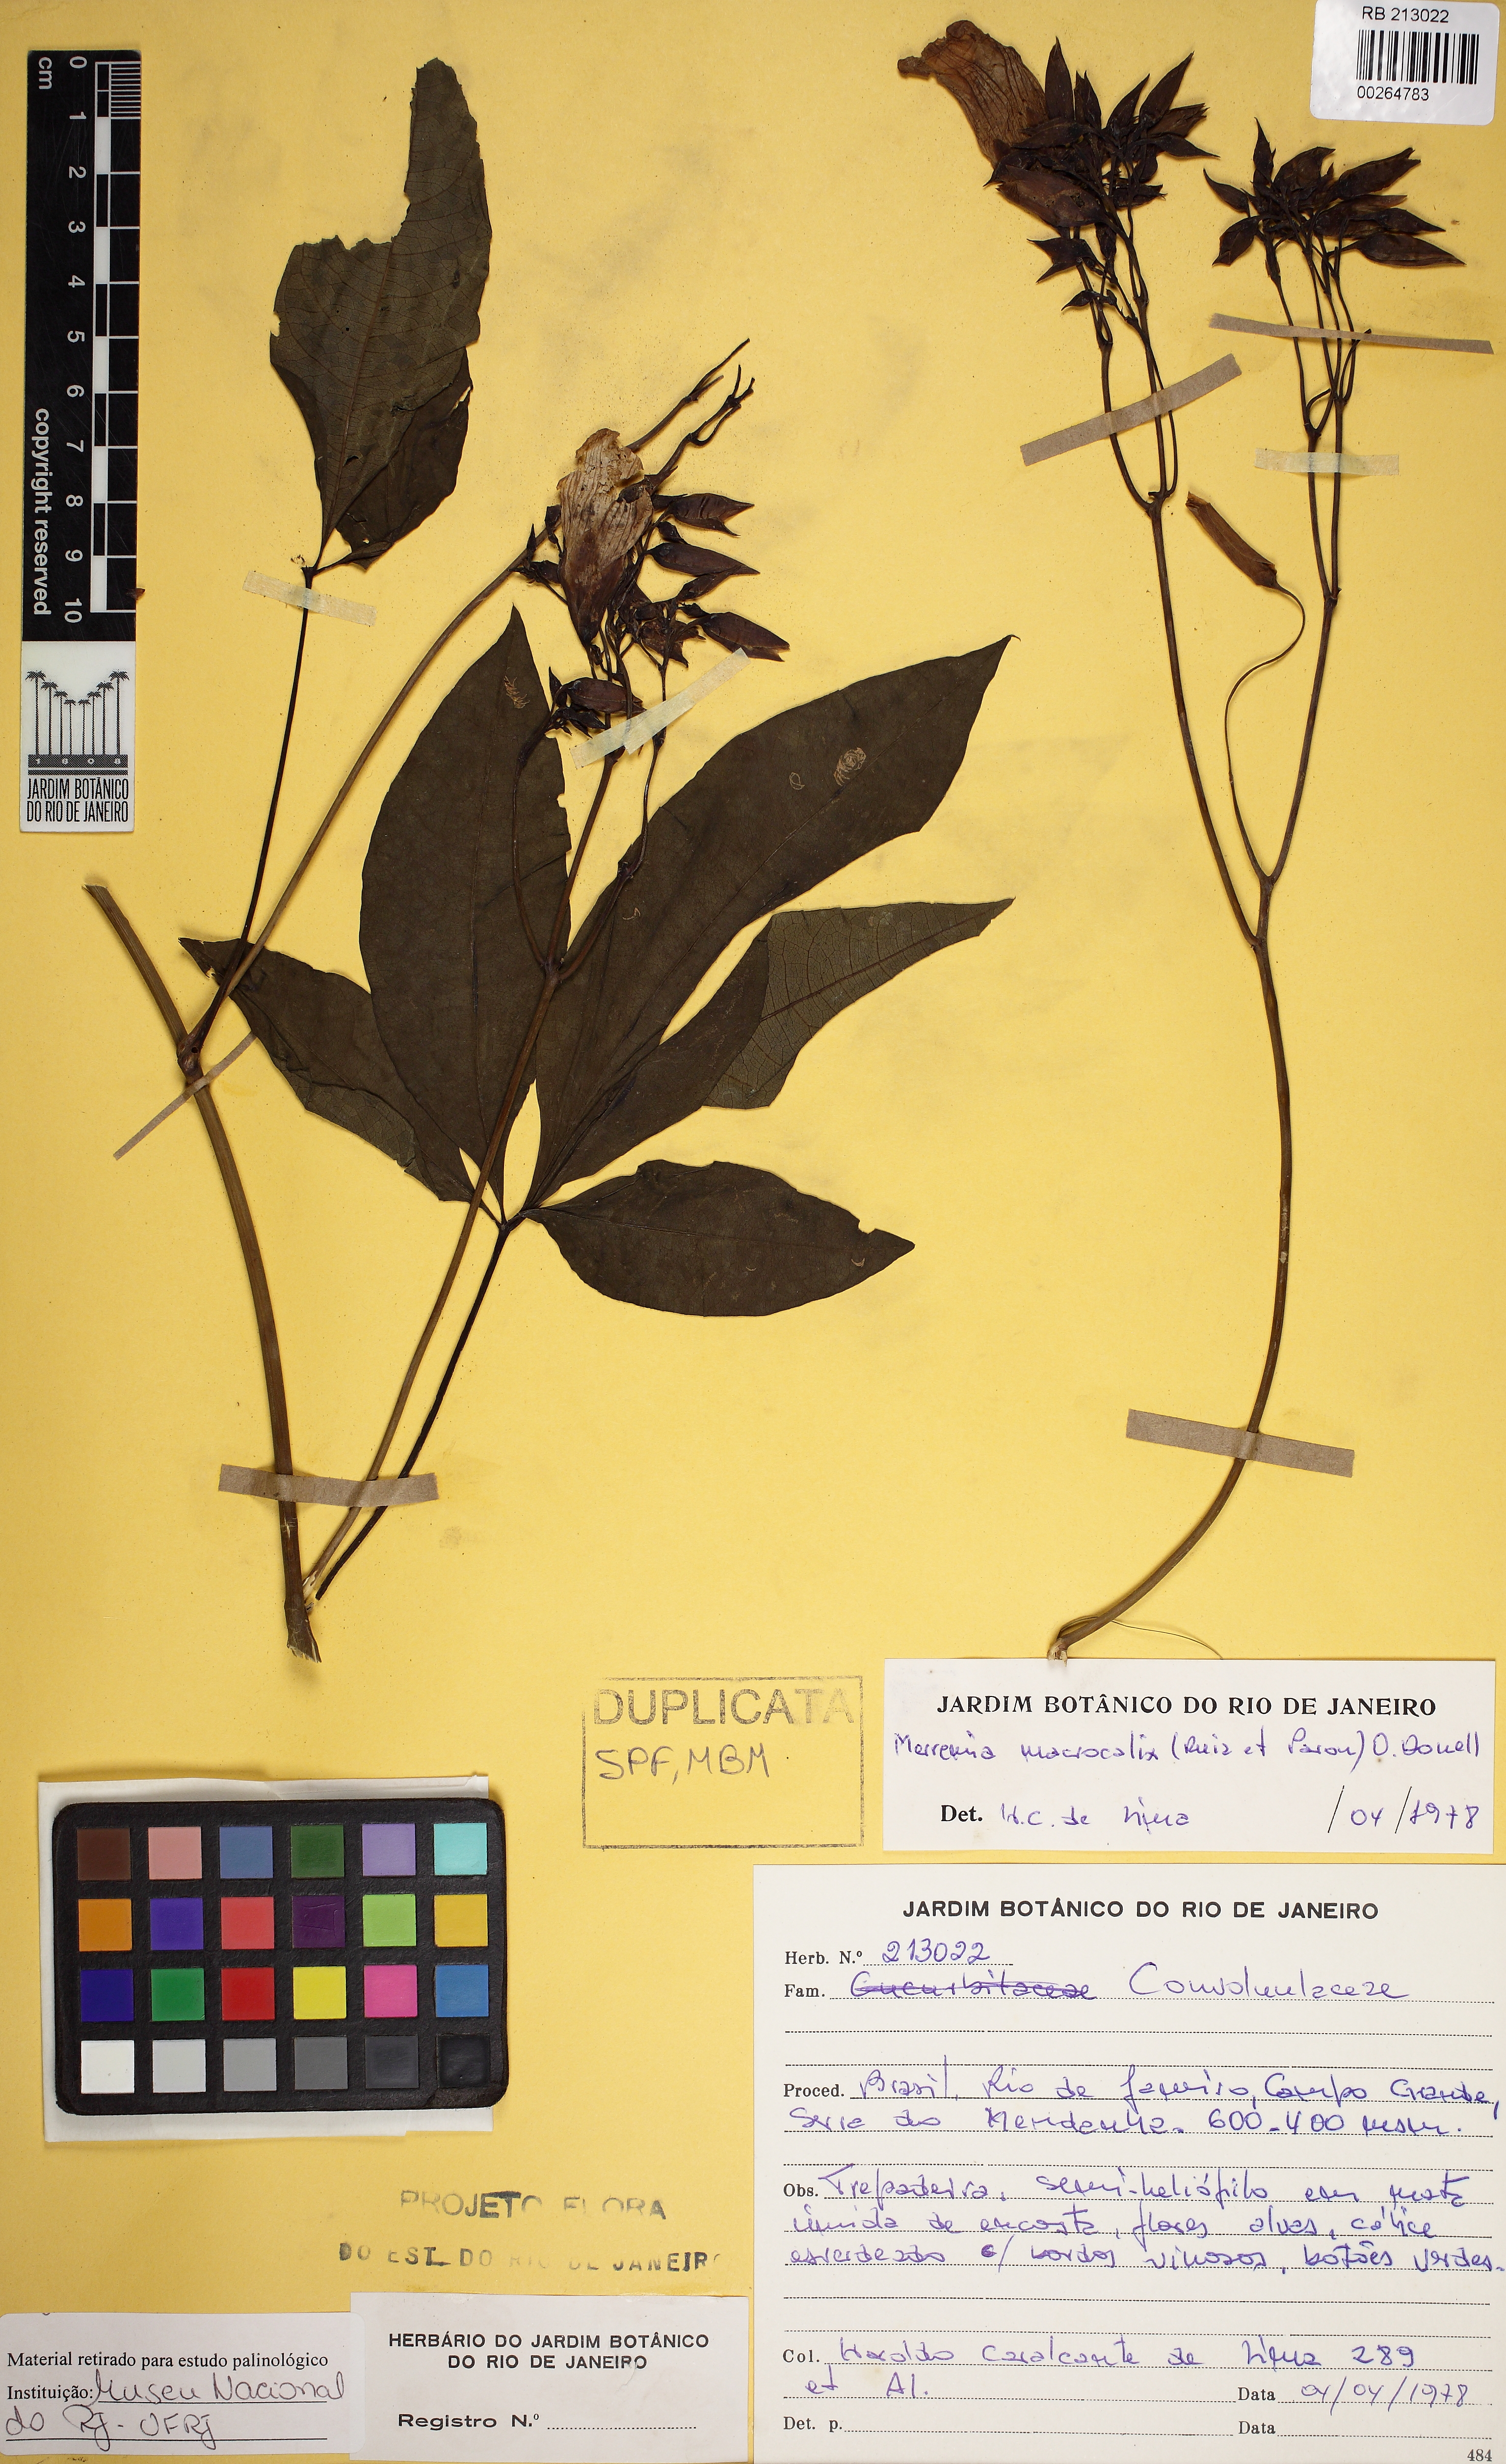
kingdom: Plantae
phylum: Tracheophyta
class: Magnoliopsida
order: Solanales
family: Convolvulaceae
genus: Distimake
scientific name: Distimake macrocalyx
